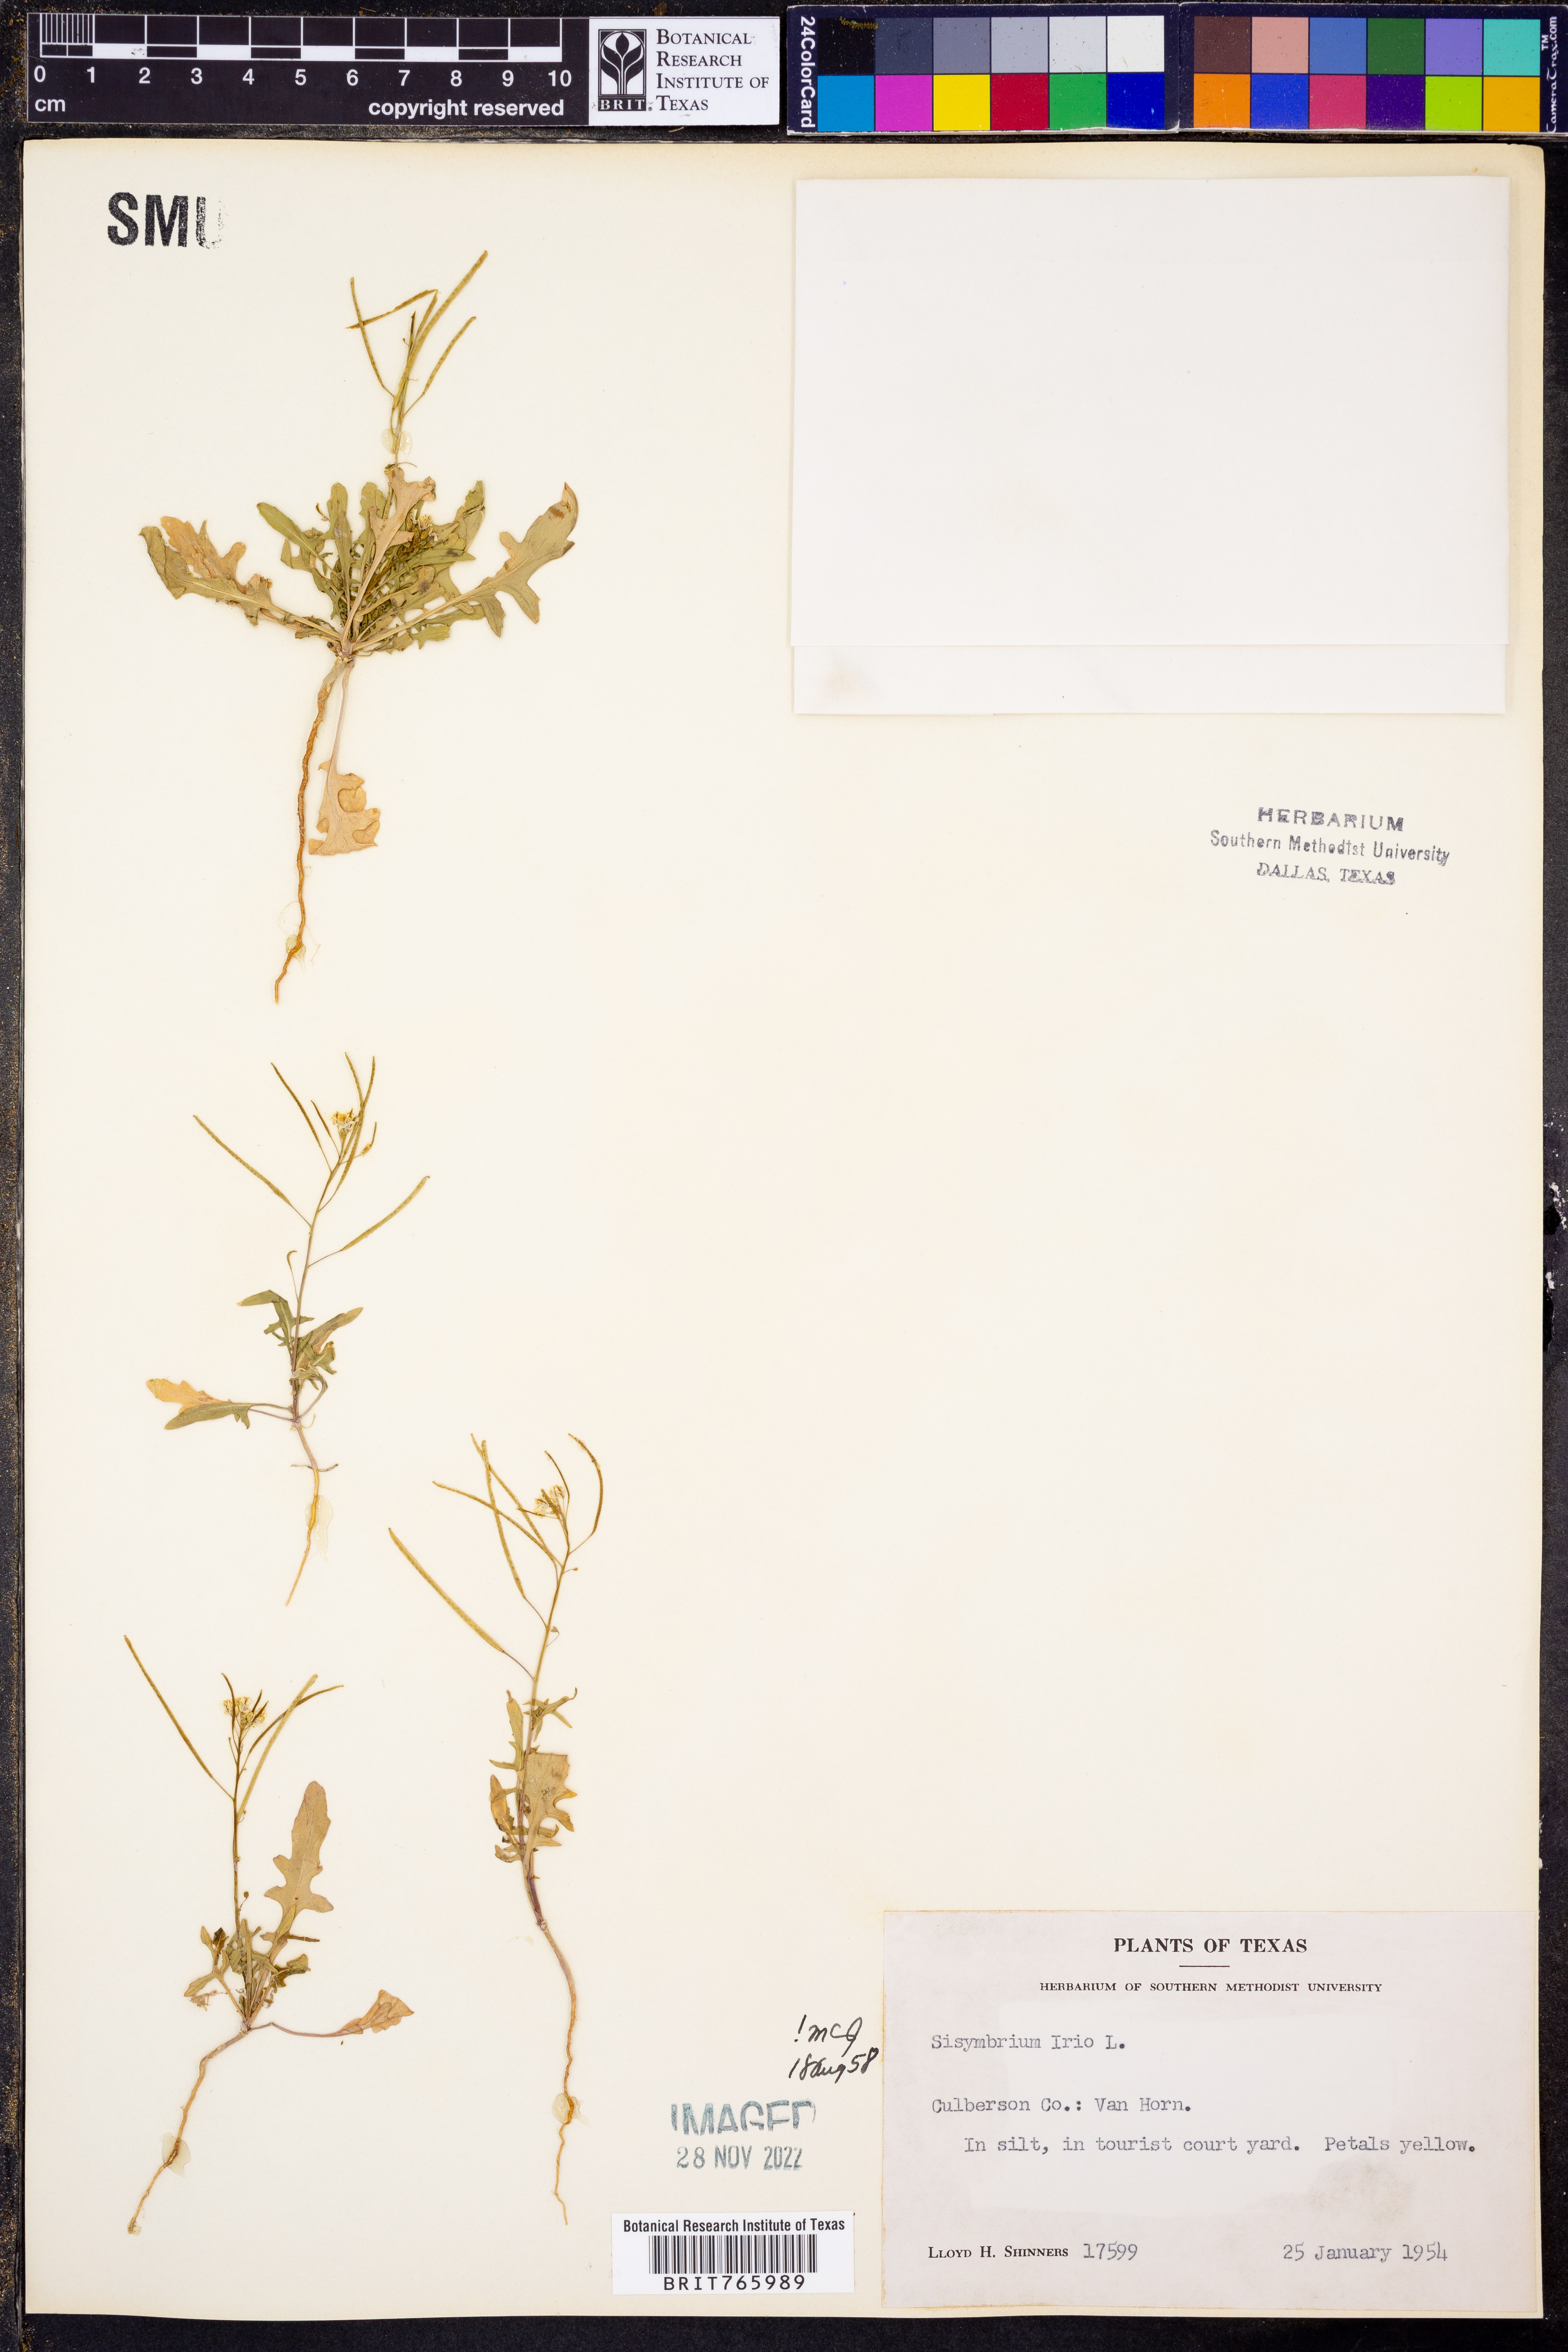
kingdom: Plantae
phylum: Tracheophyta
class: Magnoliopsida
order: Brassicales
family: Brassicaceae
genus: Sisymbrium
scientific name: Sisymbrium irio
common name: London rocket
